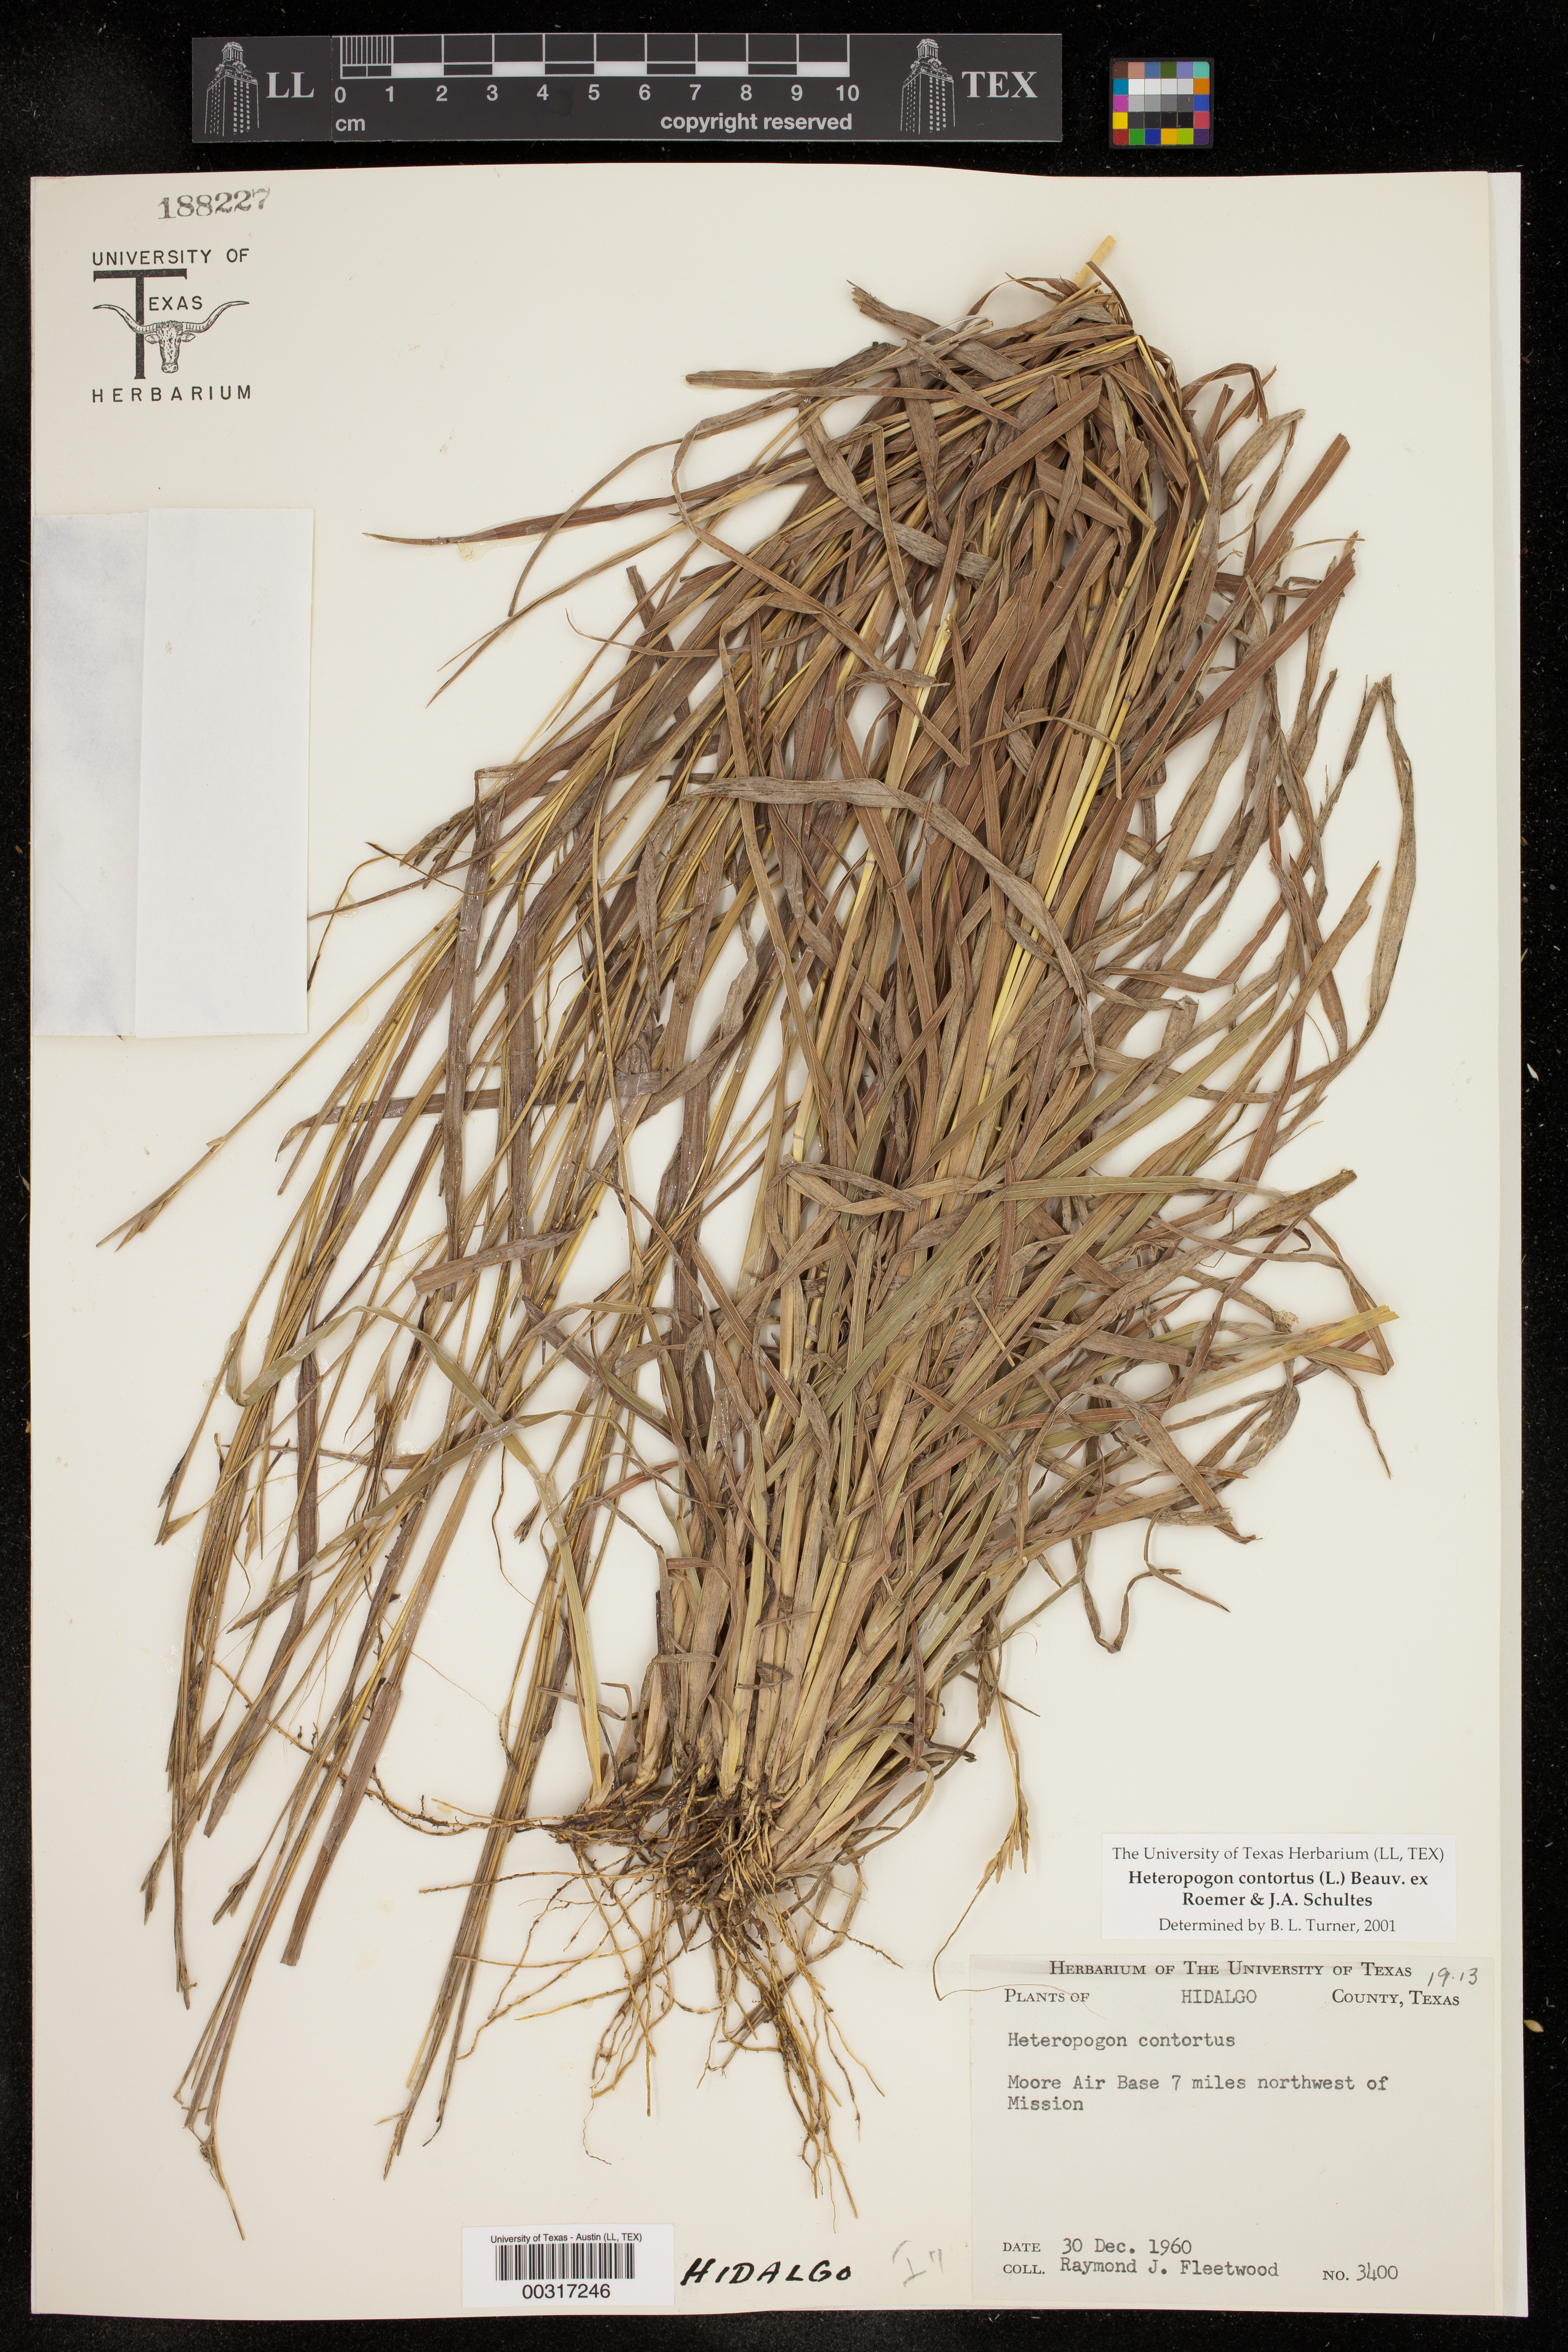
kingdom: Plantae
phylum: Tracheophyta
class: Liliopsida
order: Poales
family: Poaceae
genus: Heteropogon
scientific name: Heteropogon contortus
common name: Tanglehead
